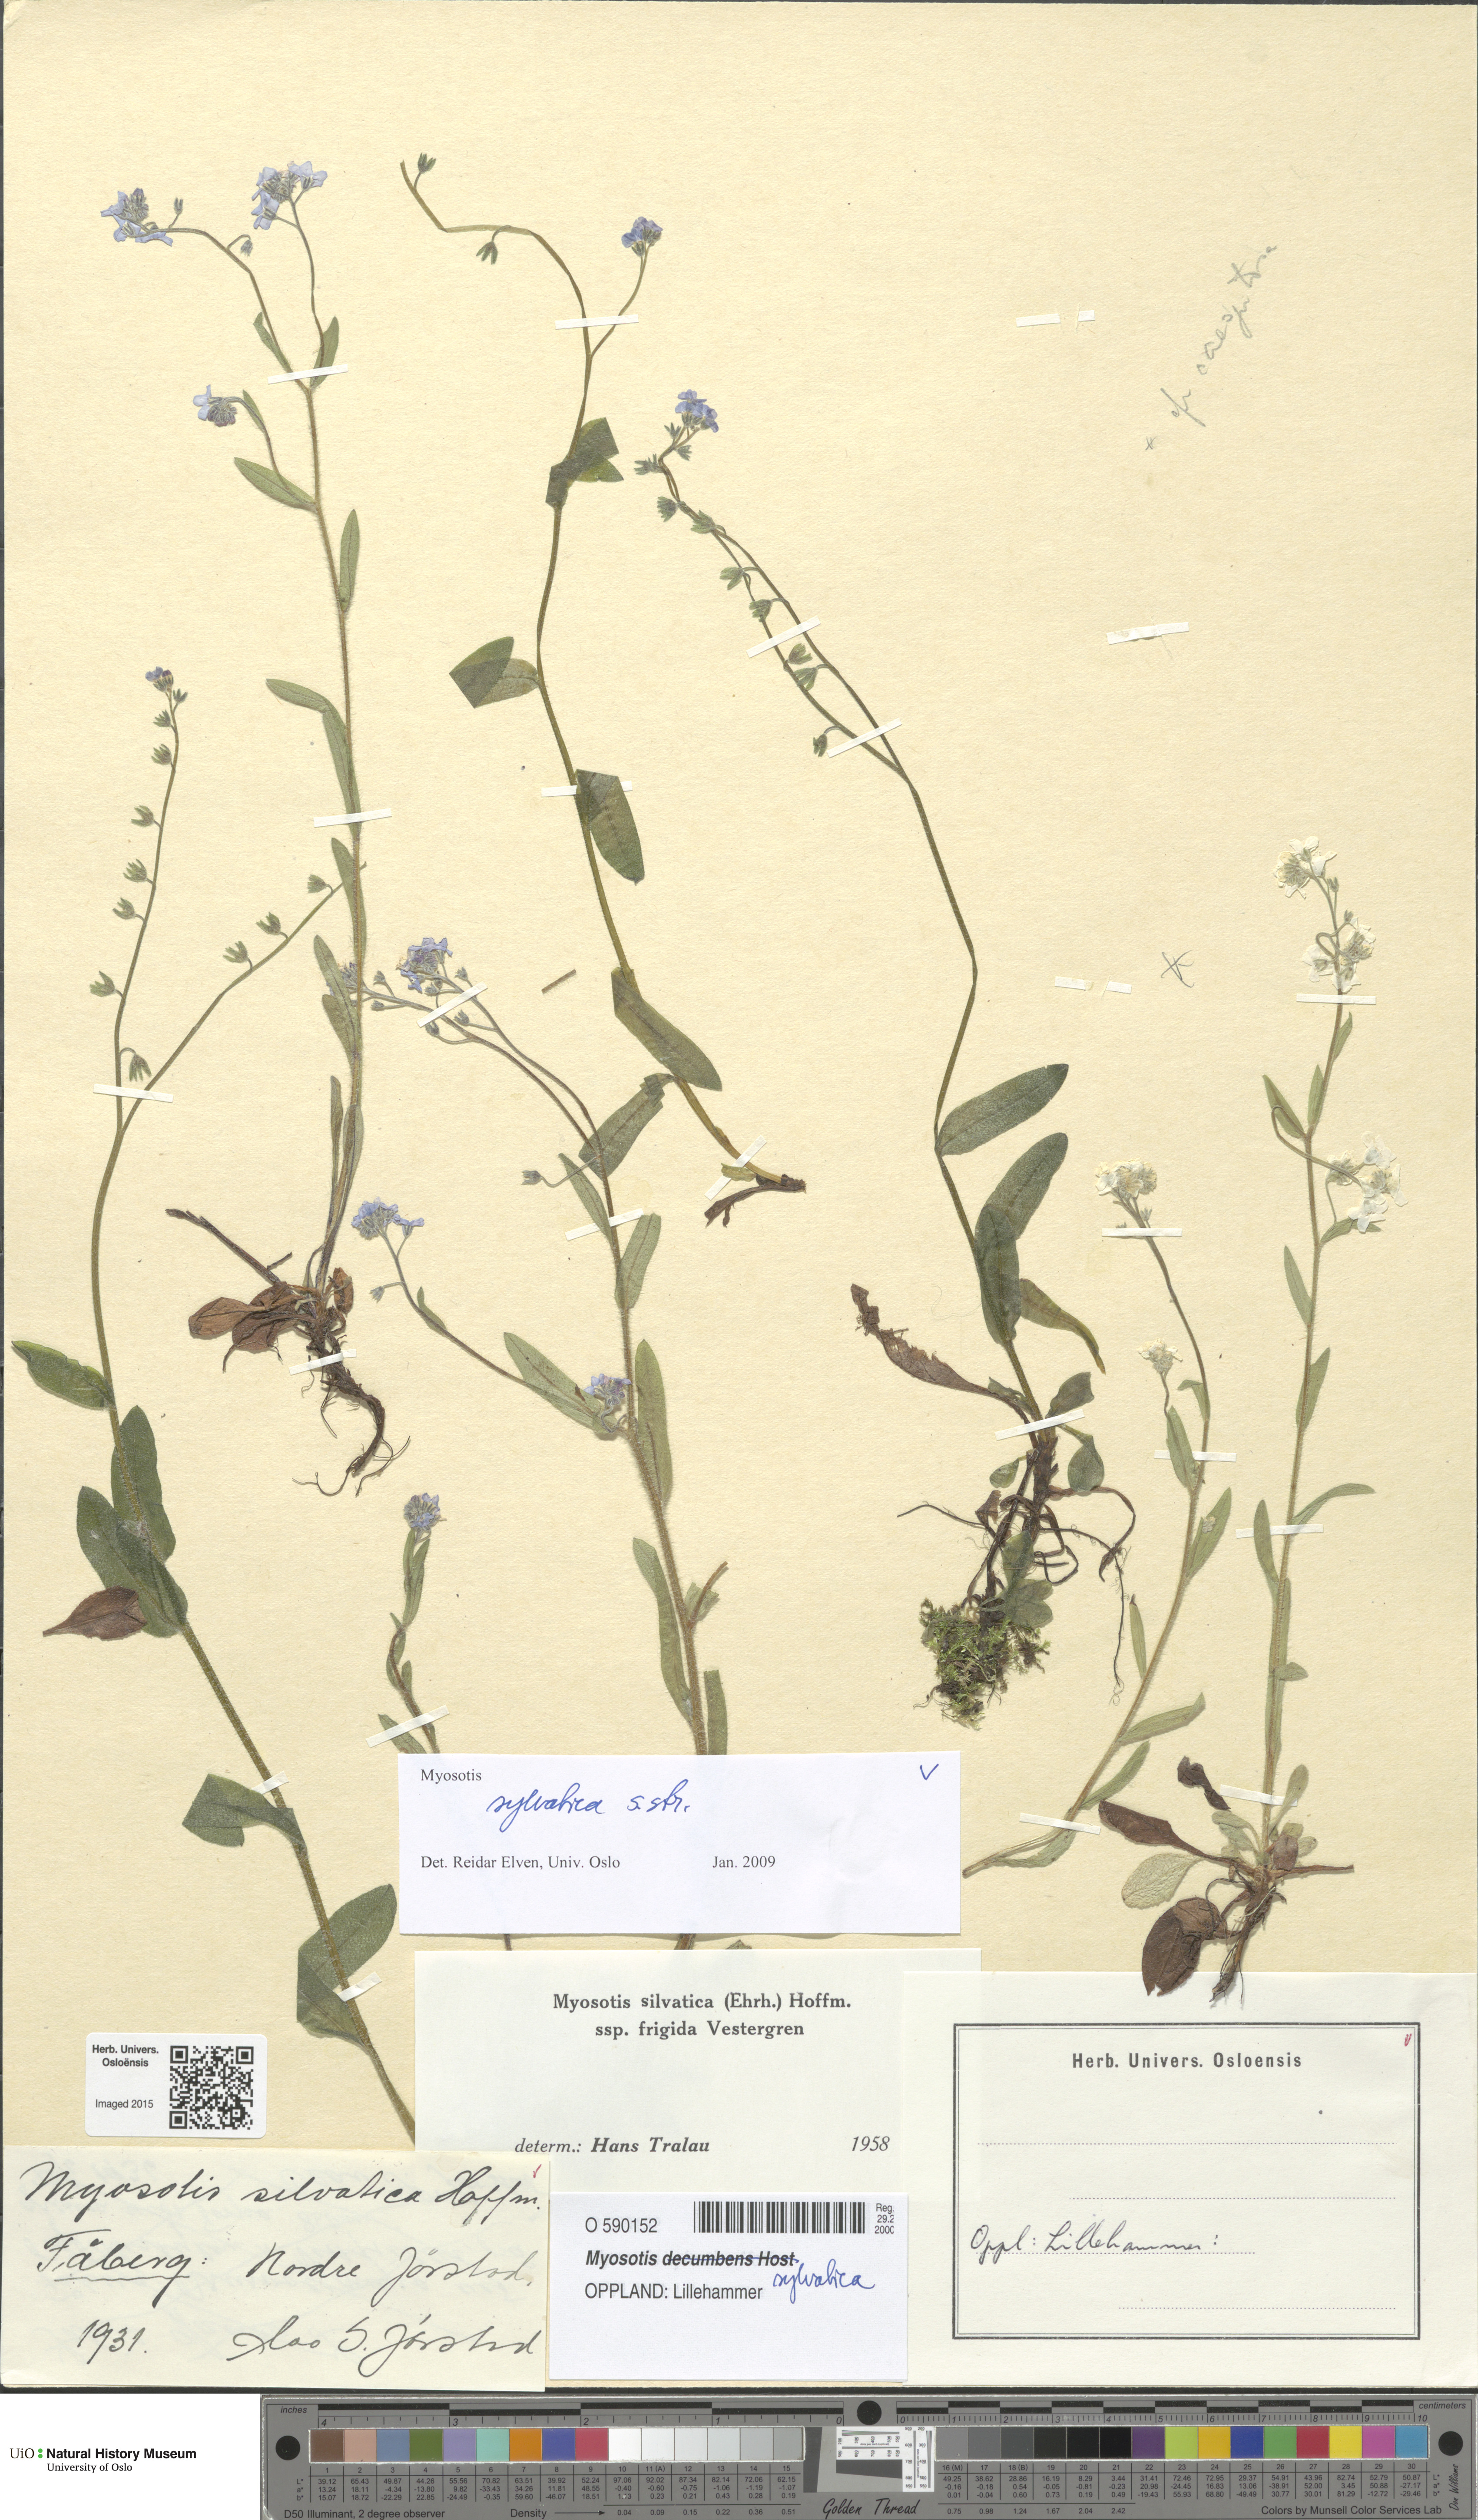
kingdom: Plantae
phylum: Tracheophyta
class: Magnoliopsida
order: Boraginales
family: Boraginaceae
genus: Myosotis
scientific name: Myosotis sylvatica
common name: Wood forget-me-not
